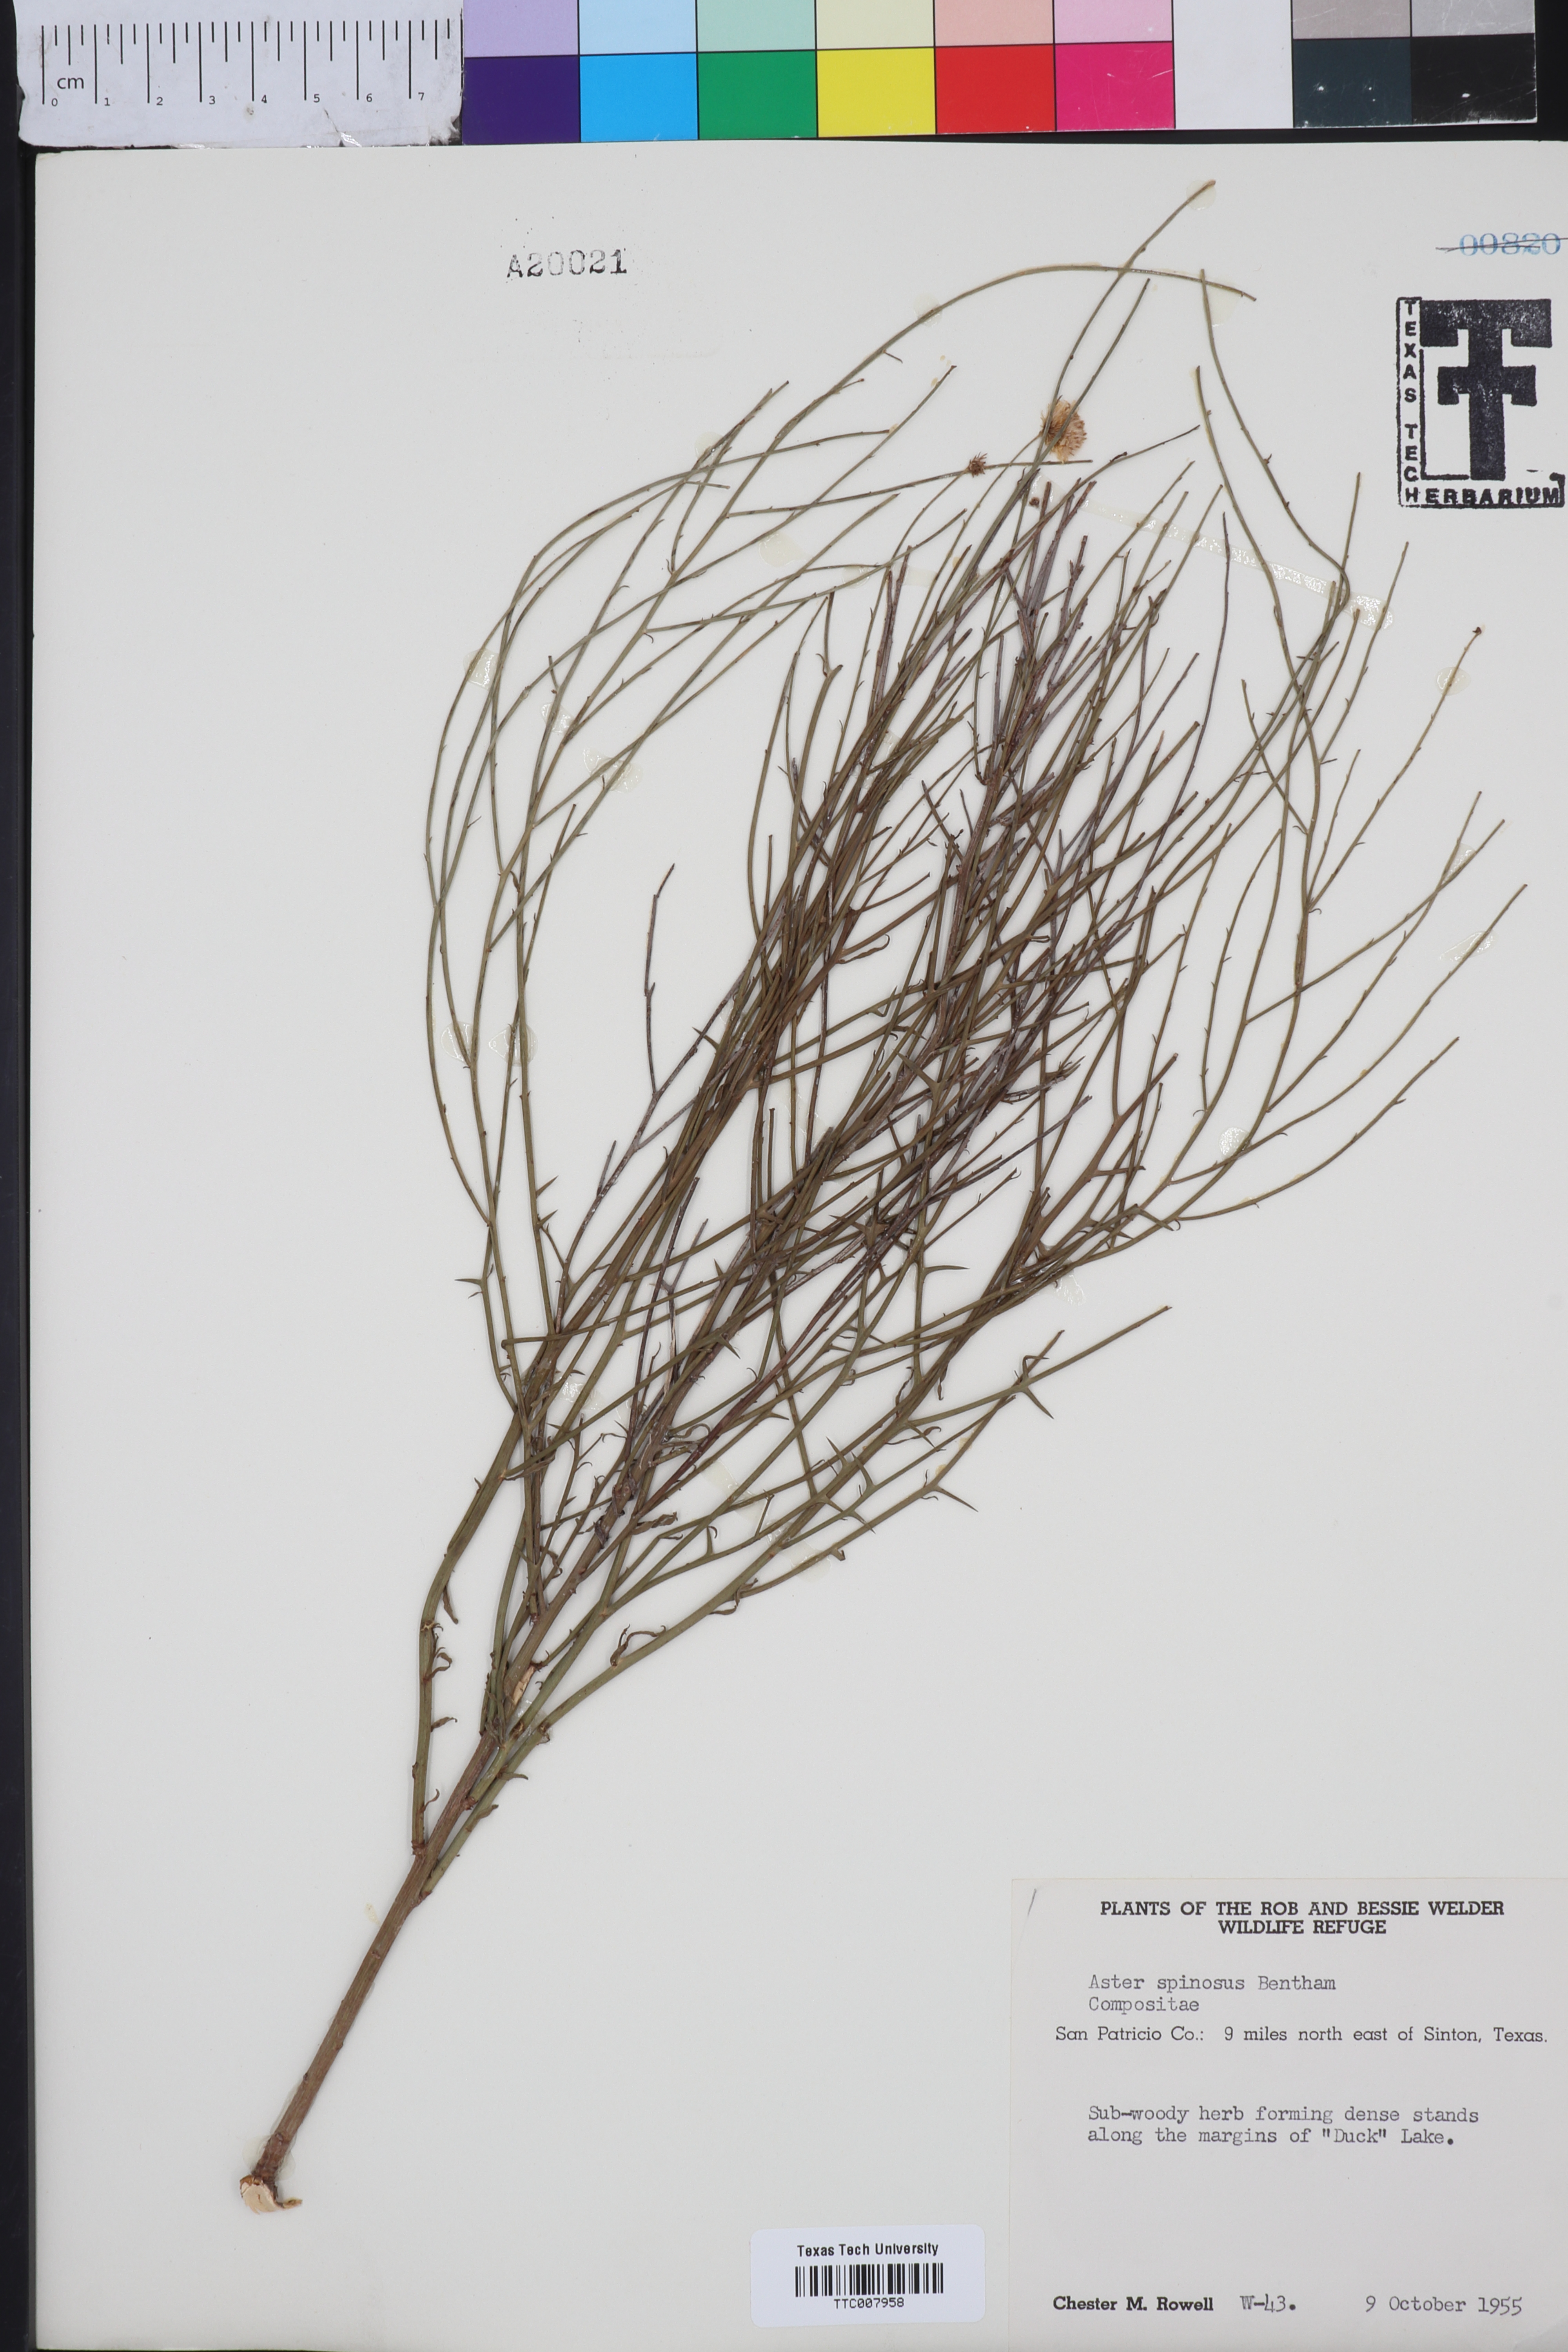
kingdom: Plantae
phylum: Tracheophyta
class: Magnoliopsida
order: Asterales
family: Asteraceae
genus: Chloracantha
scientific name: Chloracantha spinosa
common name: Mexican devilweed
